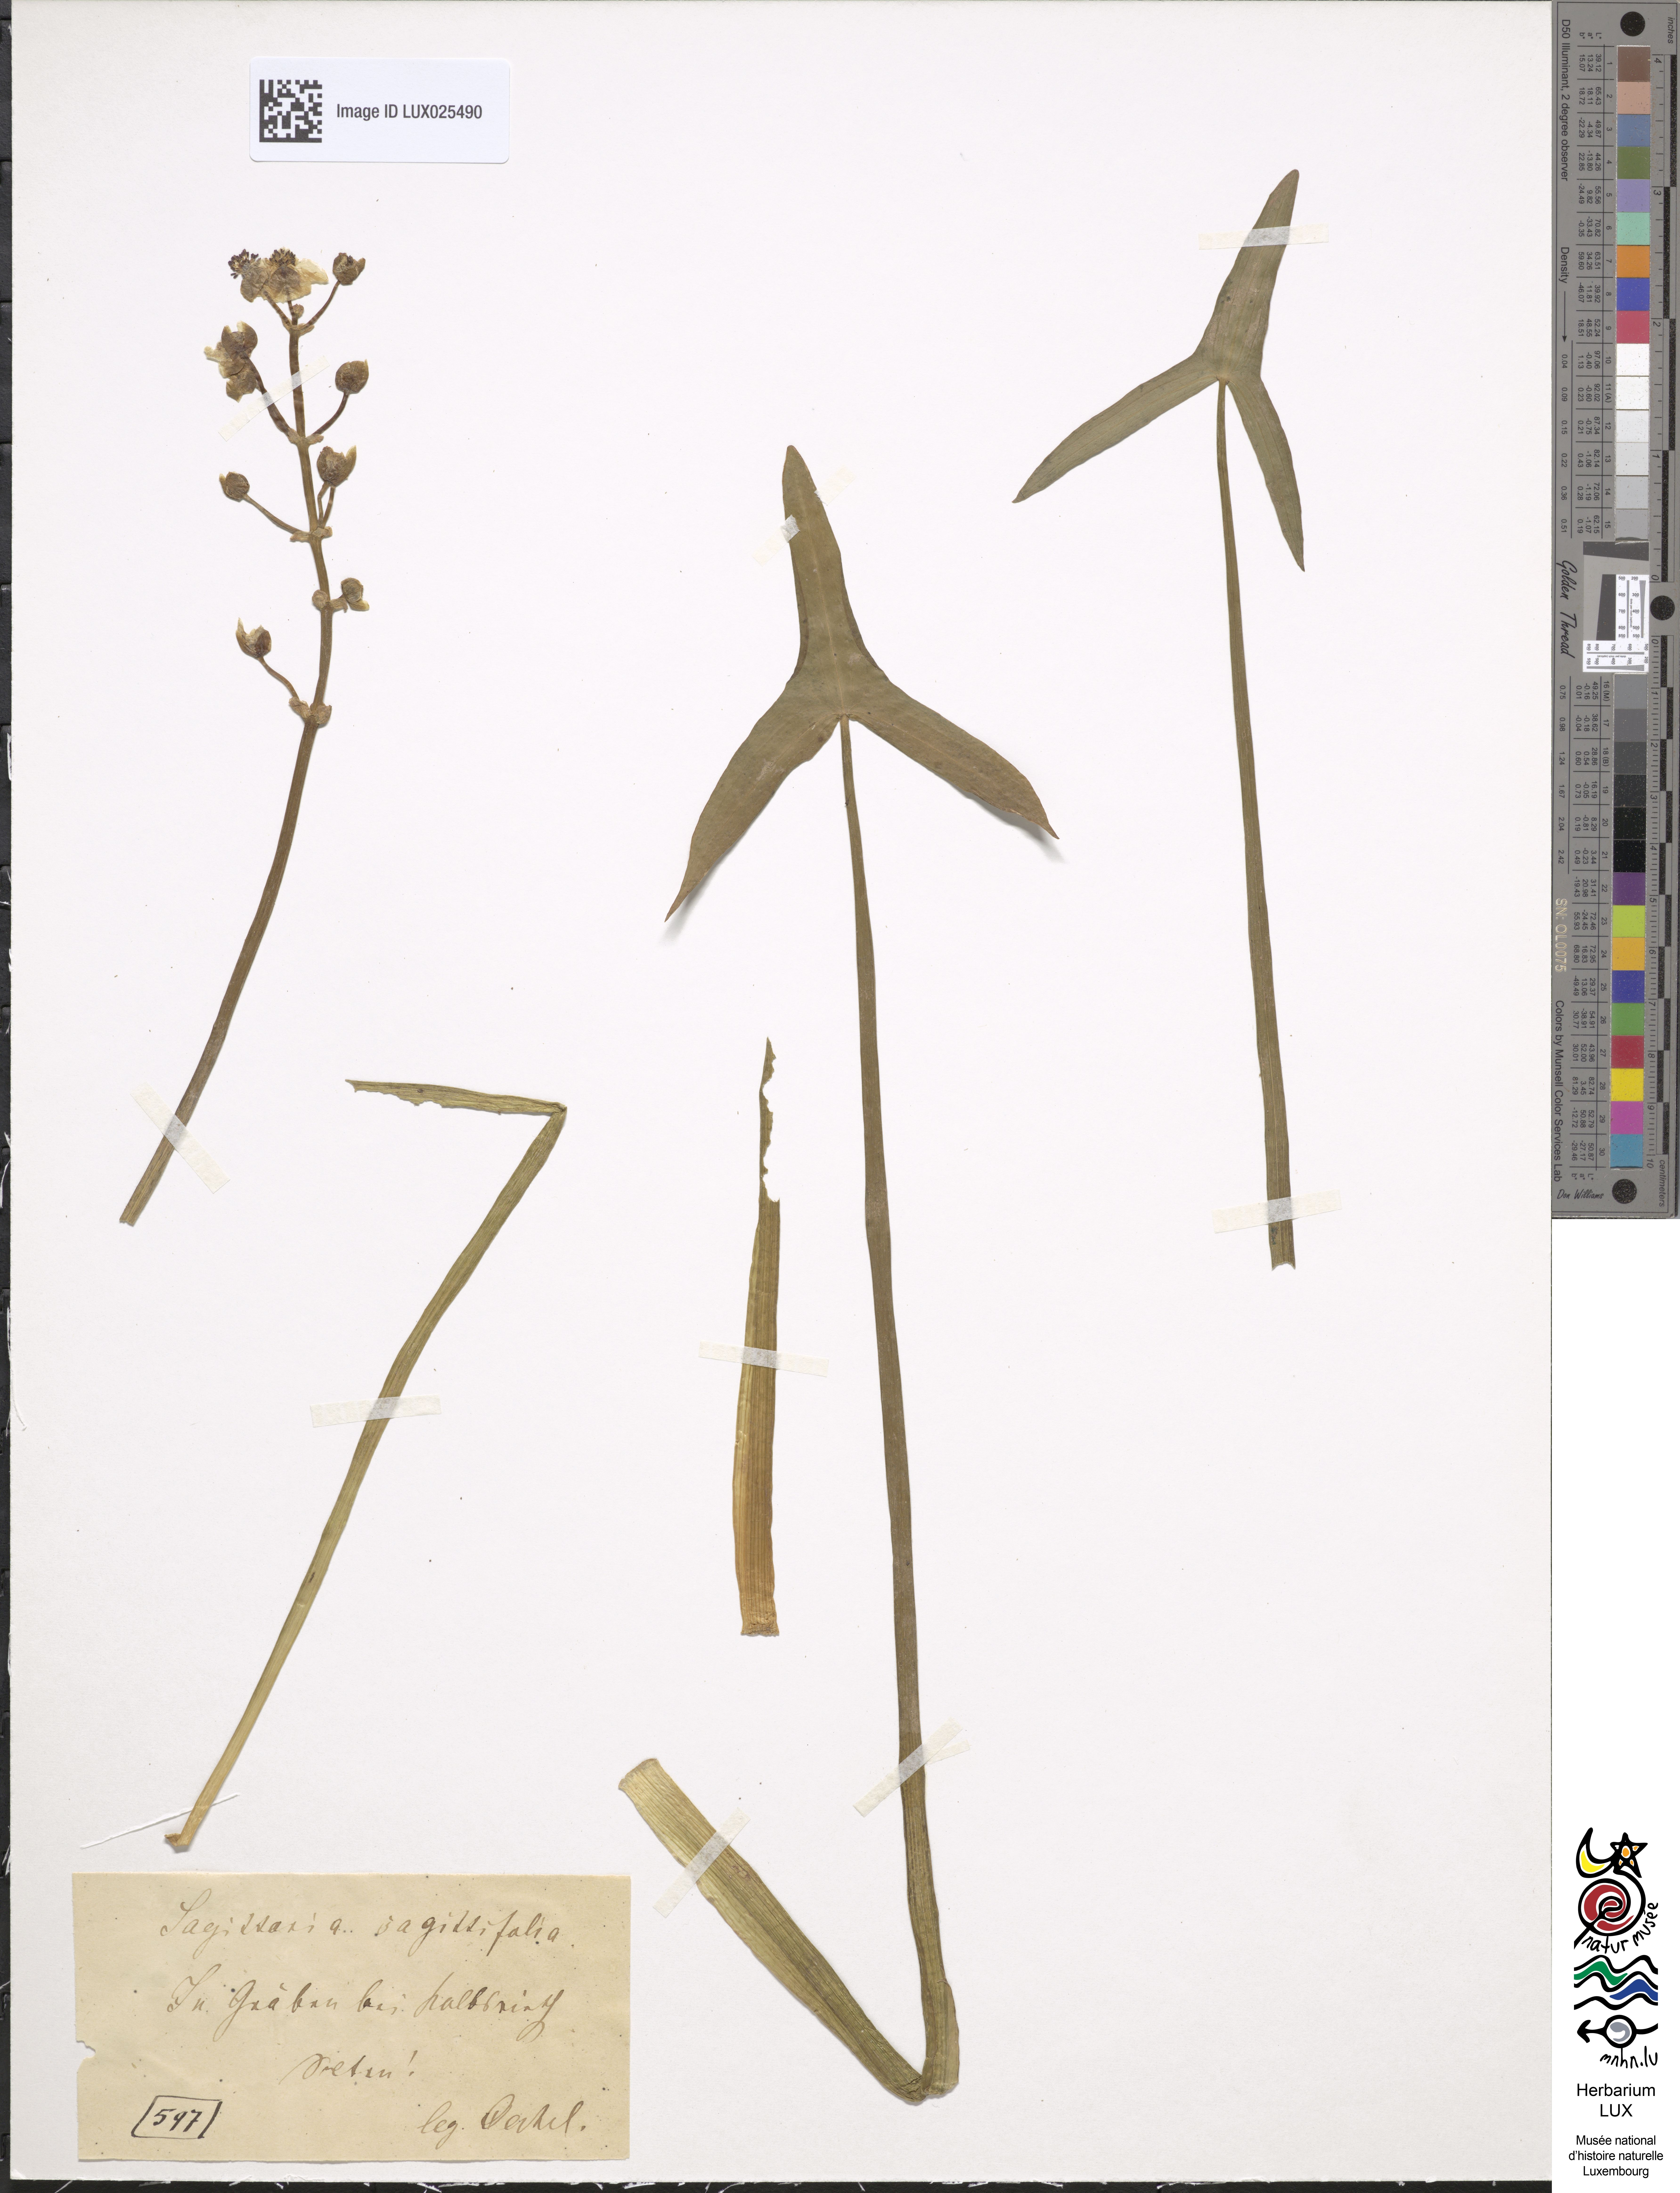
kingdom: Plantae
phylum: Tracheophyta
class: Liliopsida
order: Alismatales
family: Alismataceae
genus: Sagittaria
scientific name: Sagittaria sagittifolia
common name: Arrowhead
